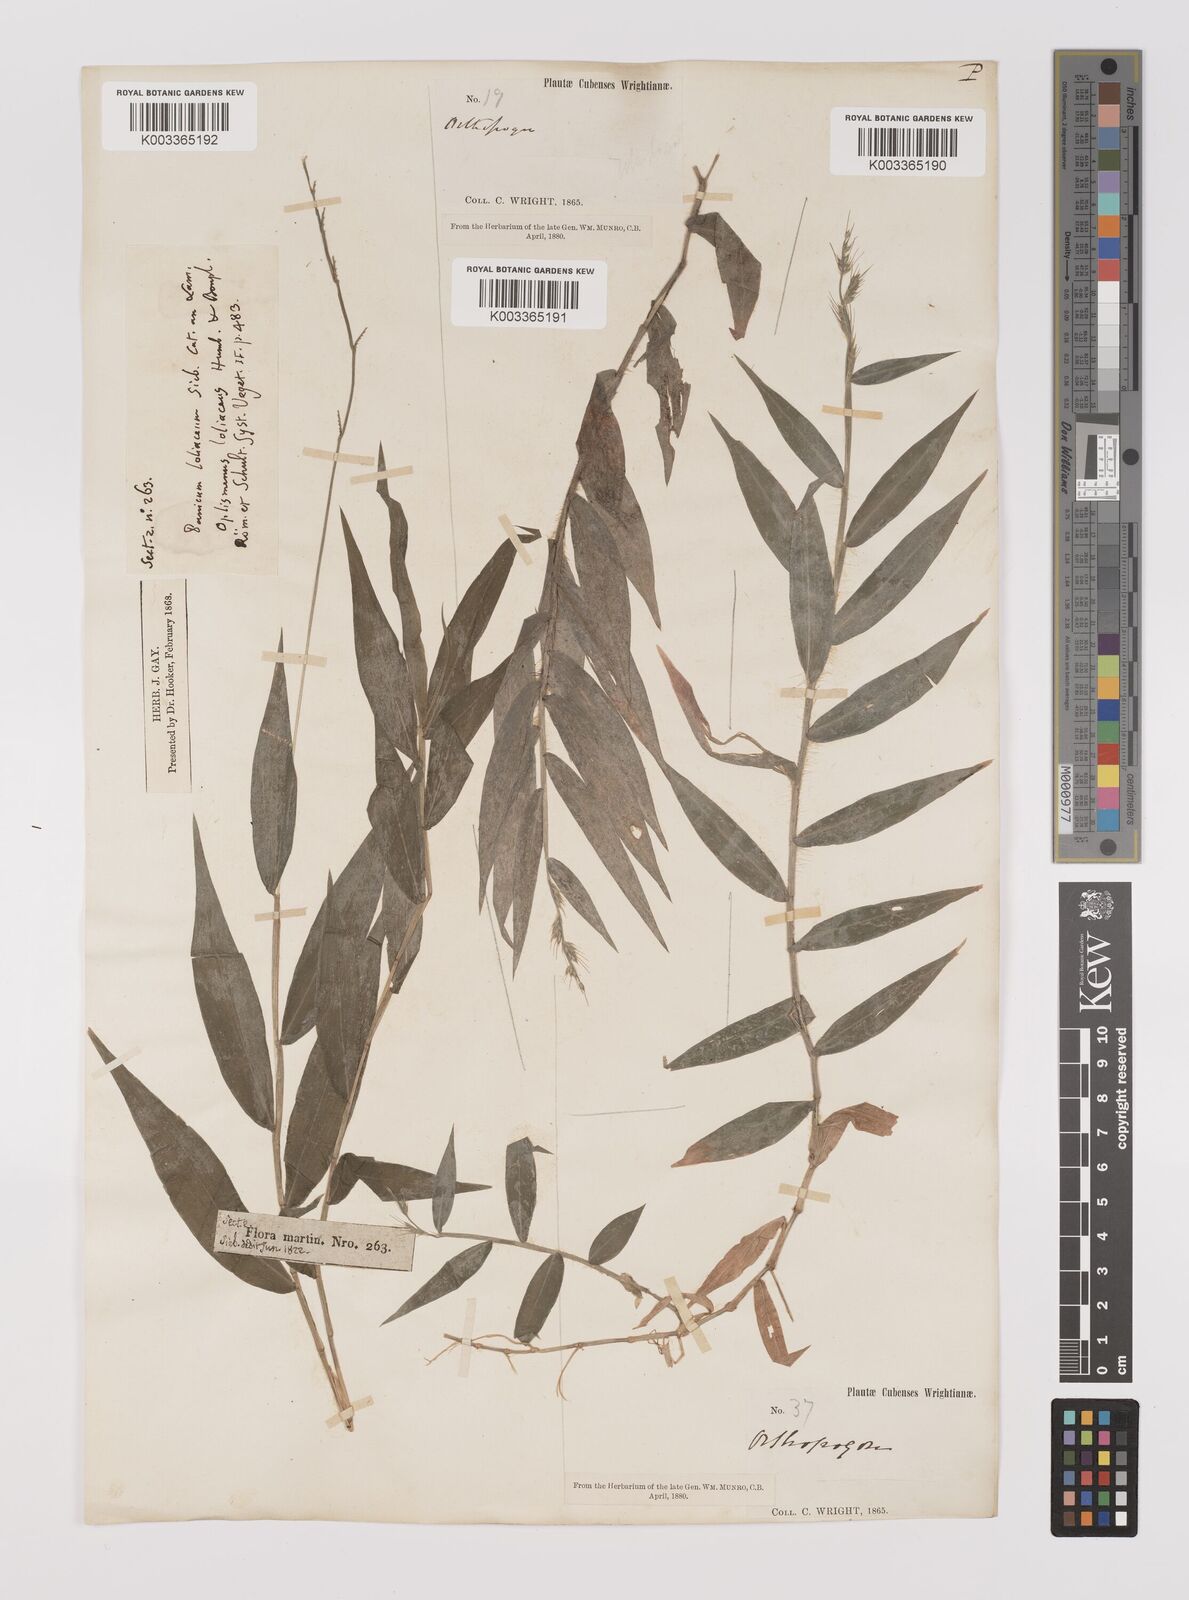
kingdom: Plantae
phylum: Tracheophyta
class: Liliopsida
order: Poales
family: Poaceae
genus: Oplismenus
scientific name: Oplismenus hirtellus
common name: Basketgrass
